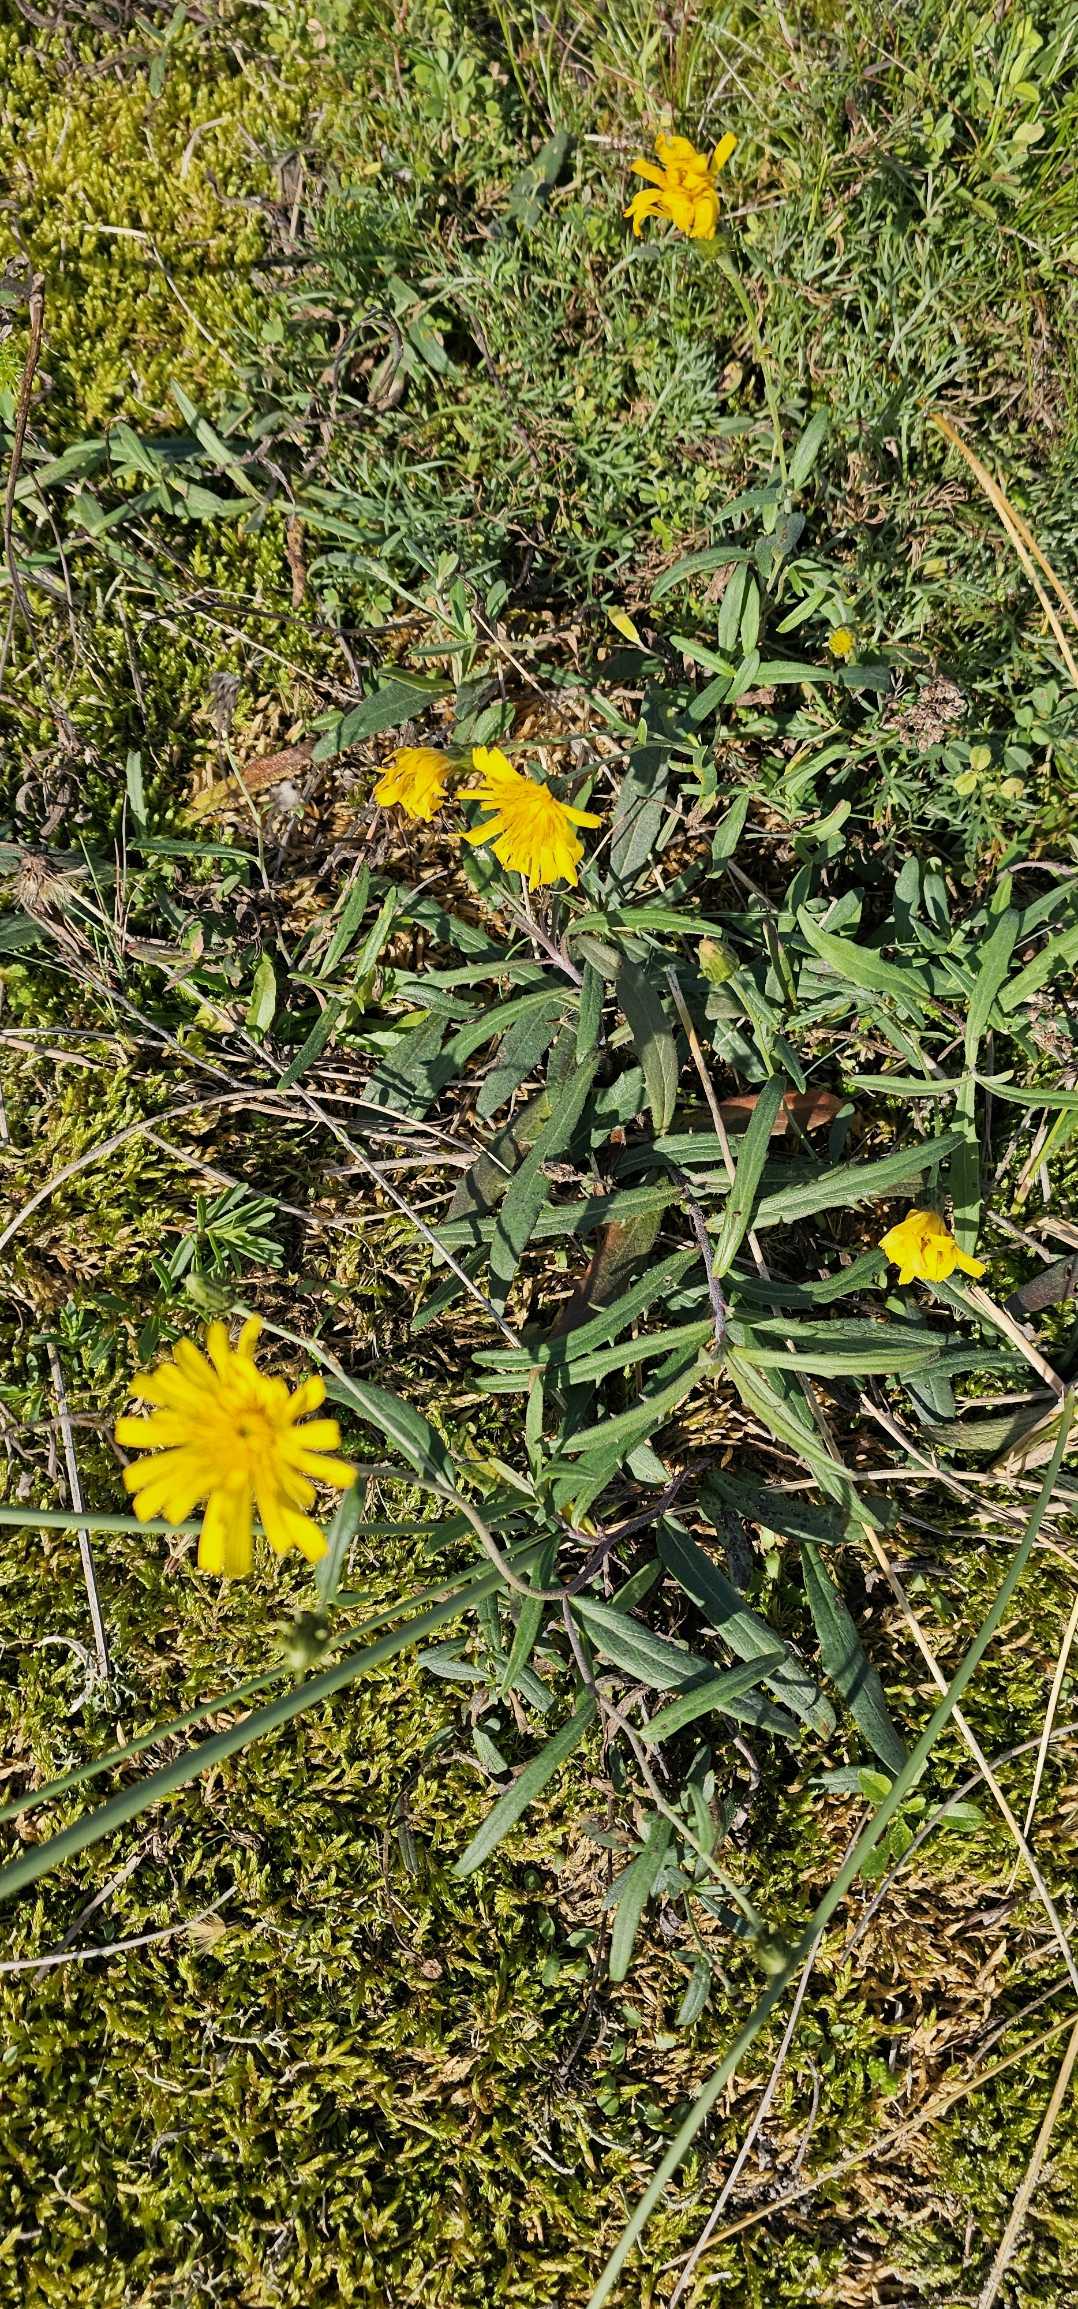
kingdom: Plantae
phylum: Tracheophyta
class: Magnoliopsida
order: Asterales
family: Asteraceae
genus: Hieracium
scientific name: Hieracium umbellatum
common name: Smalbladet høgeurt
